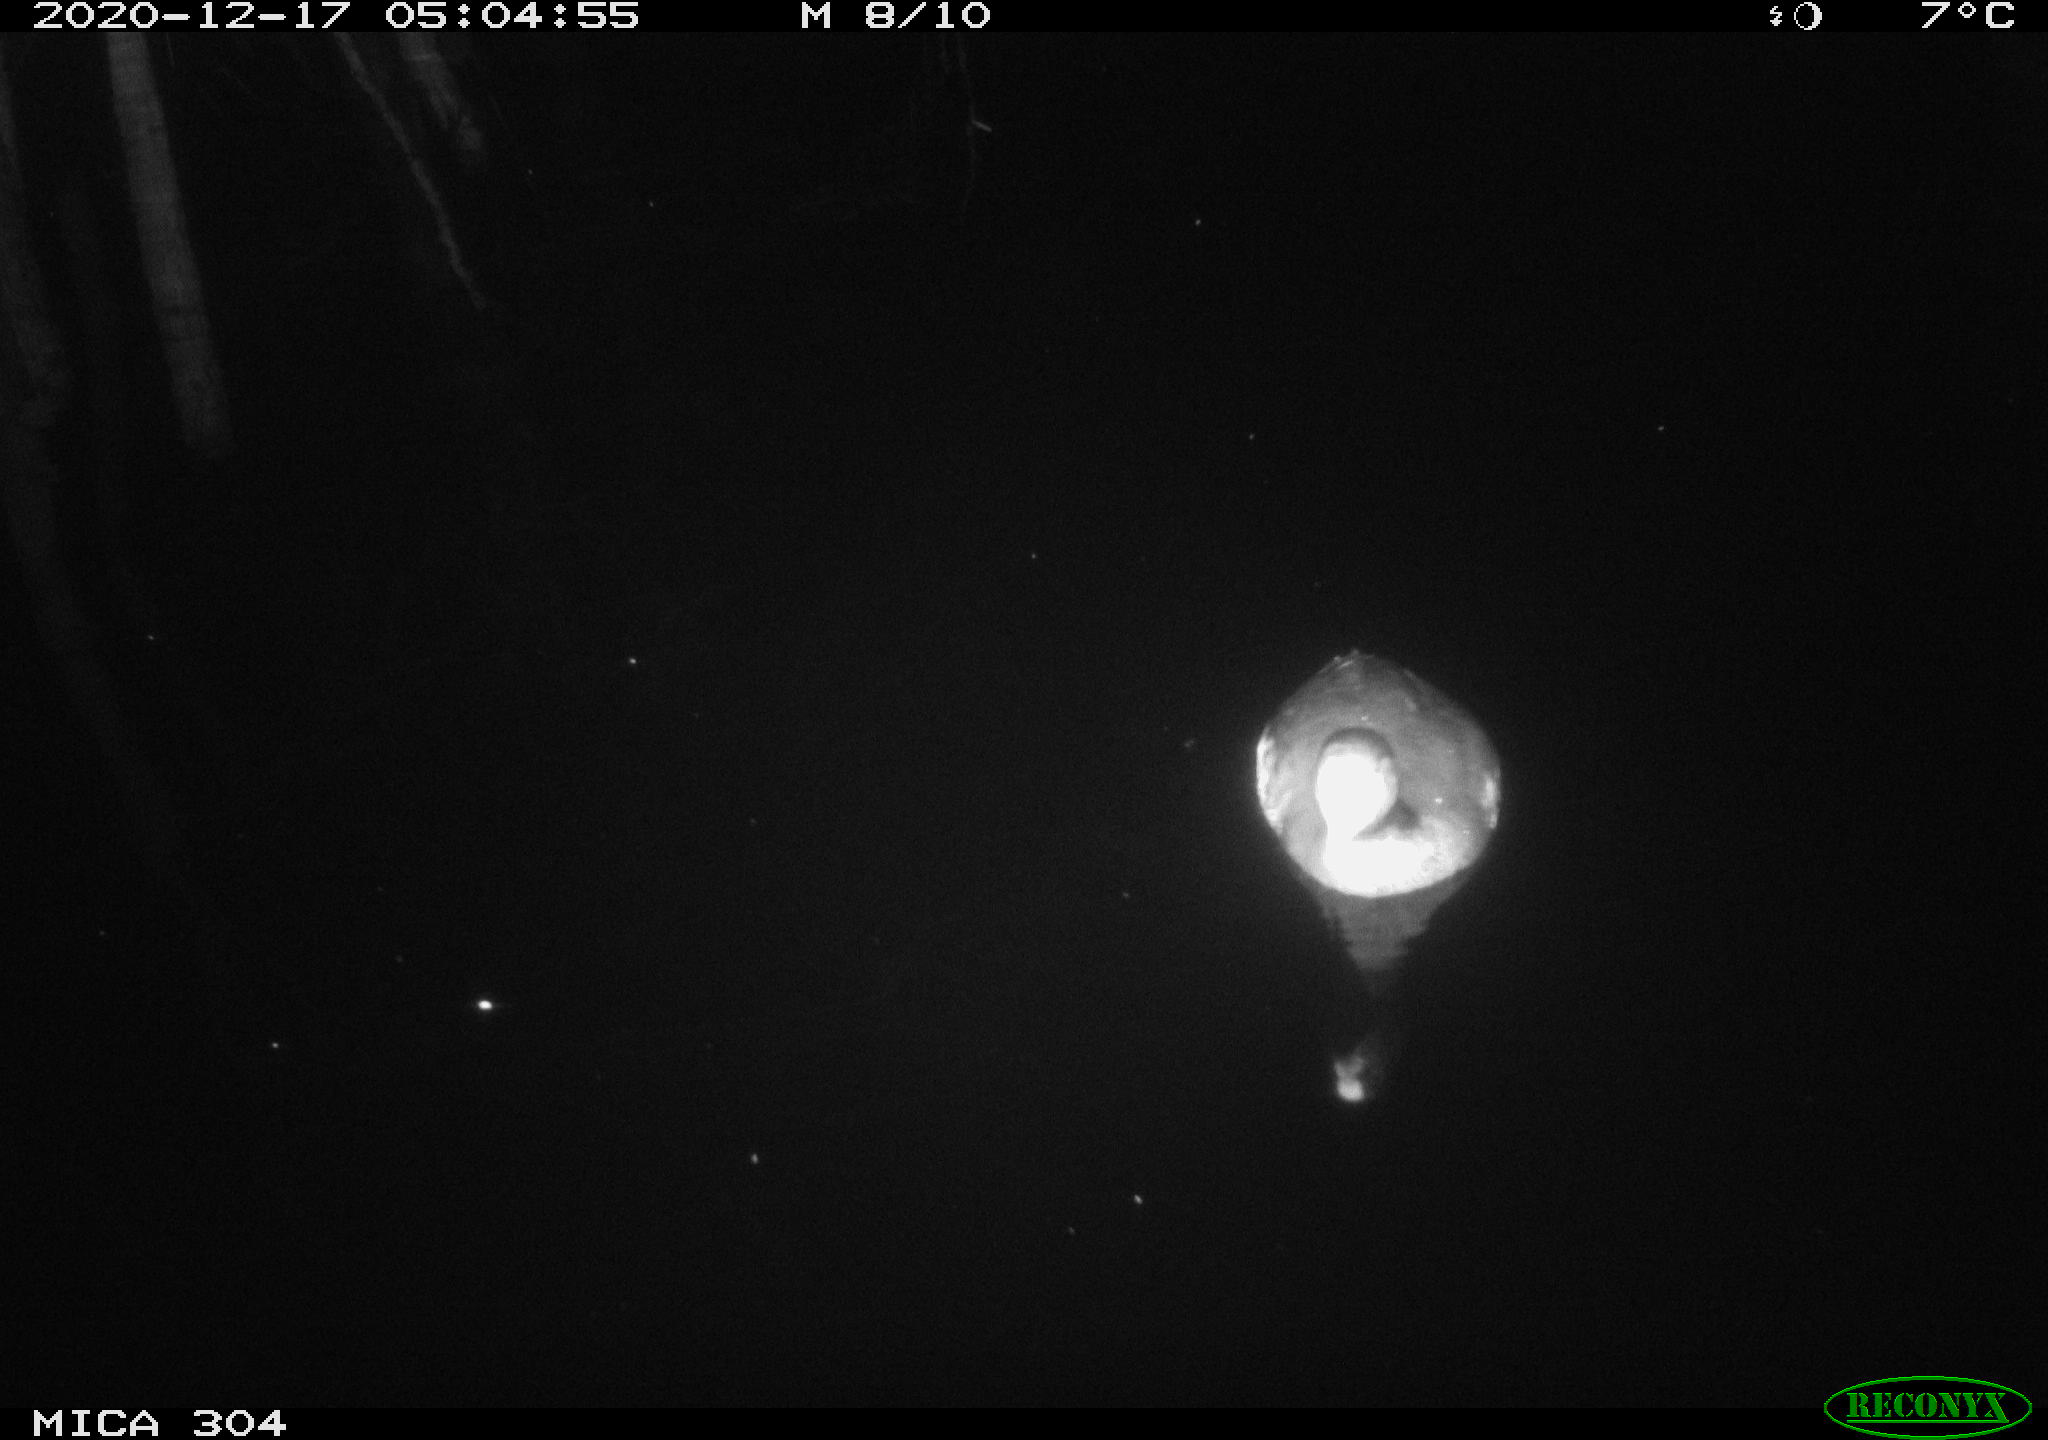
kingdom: Animalia
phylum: Chordata
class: Aves
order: Gruiformes
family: Rallidae
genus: Gallinula
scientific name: Gallinula chloropus
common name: Common moorhen
